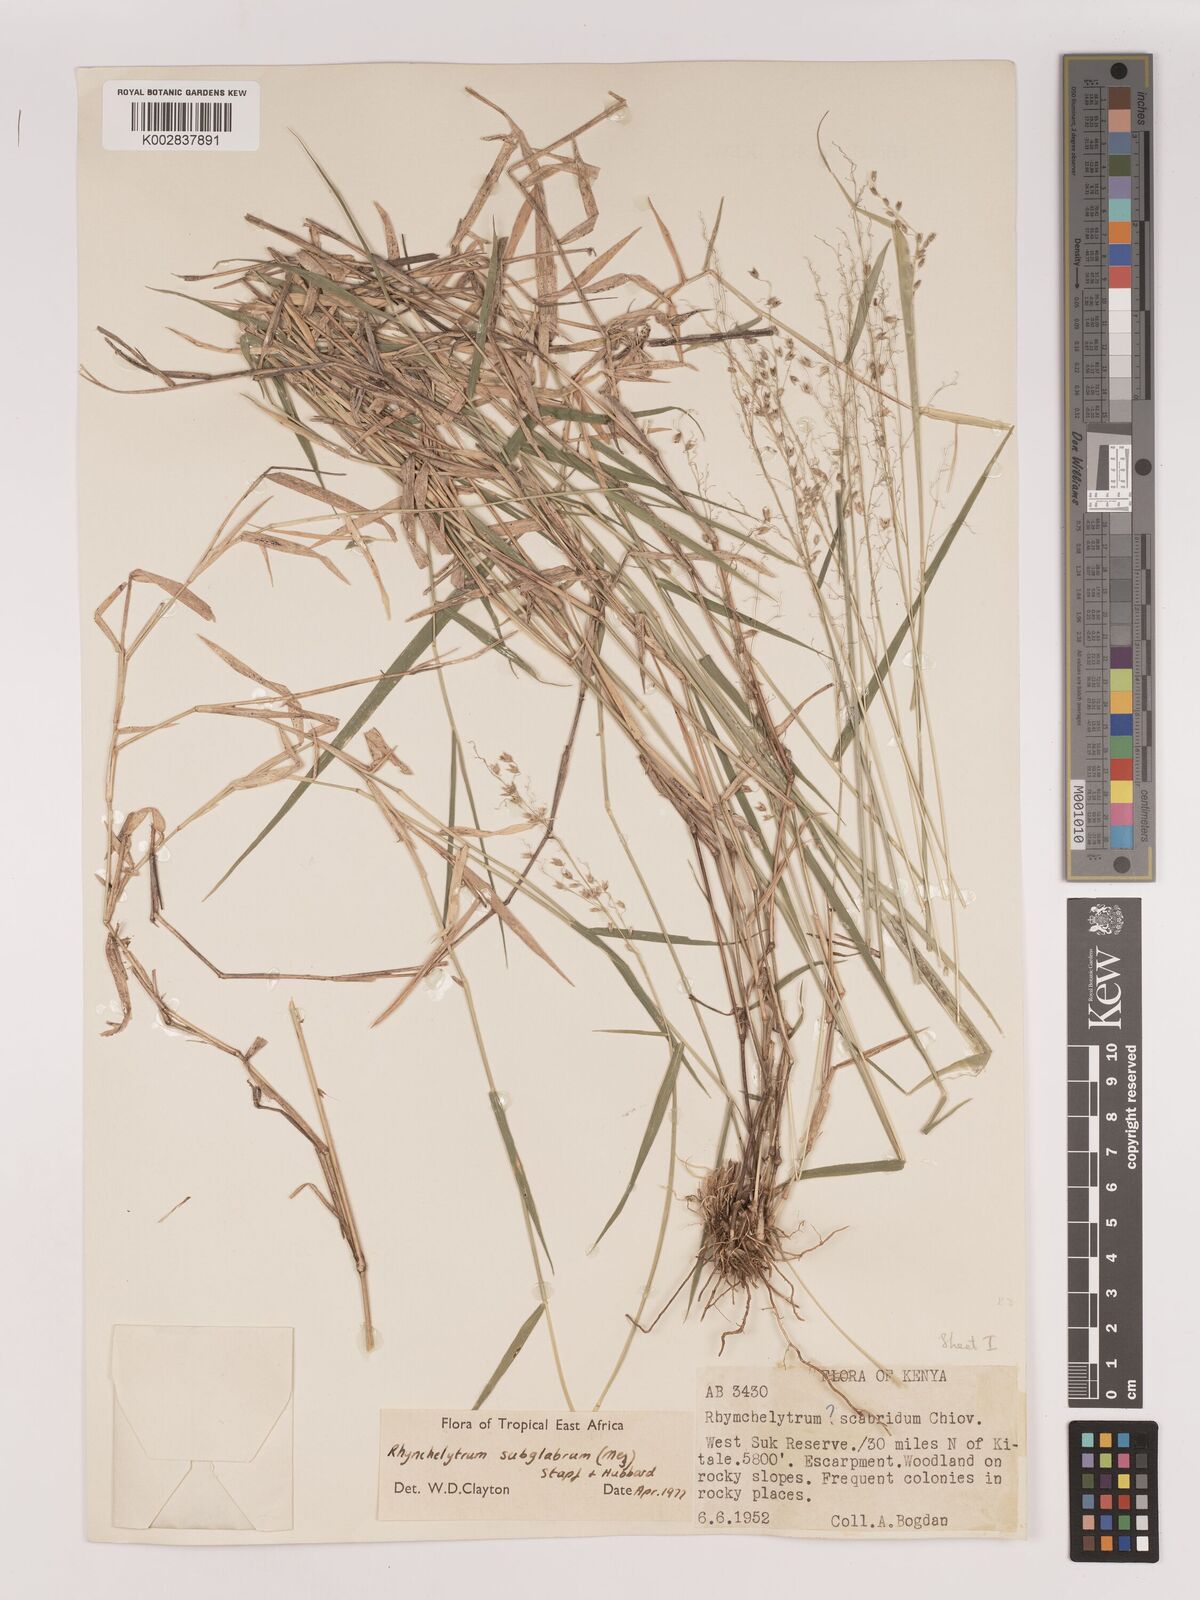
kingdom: Plantae
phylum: Tracheophyta
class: Liliopsida
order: Poales
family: Poaceae
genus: Melinis
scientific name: Melinis subglabra
